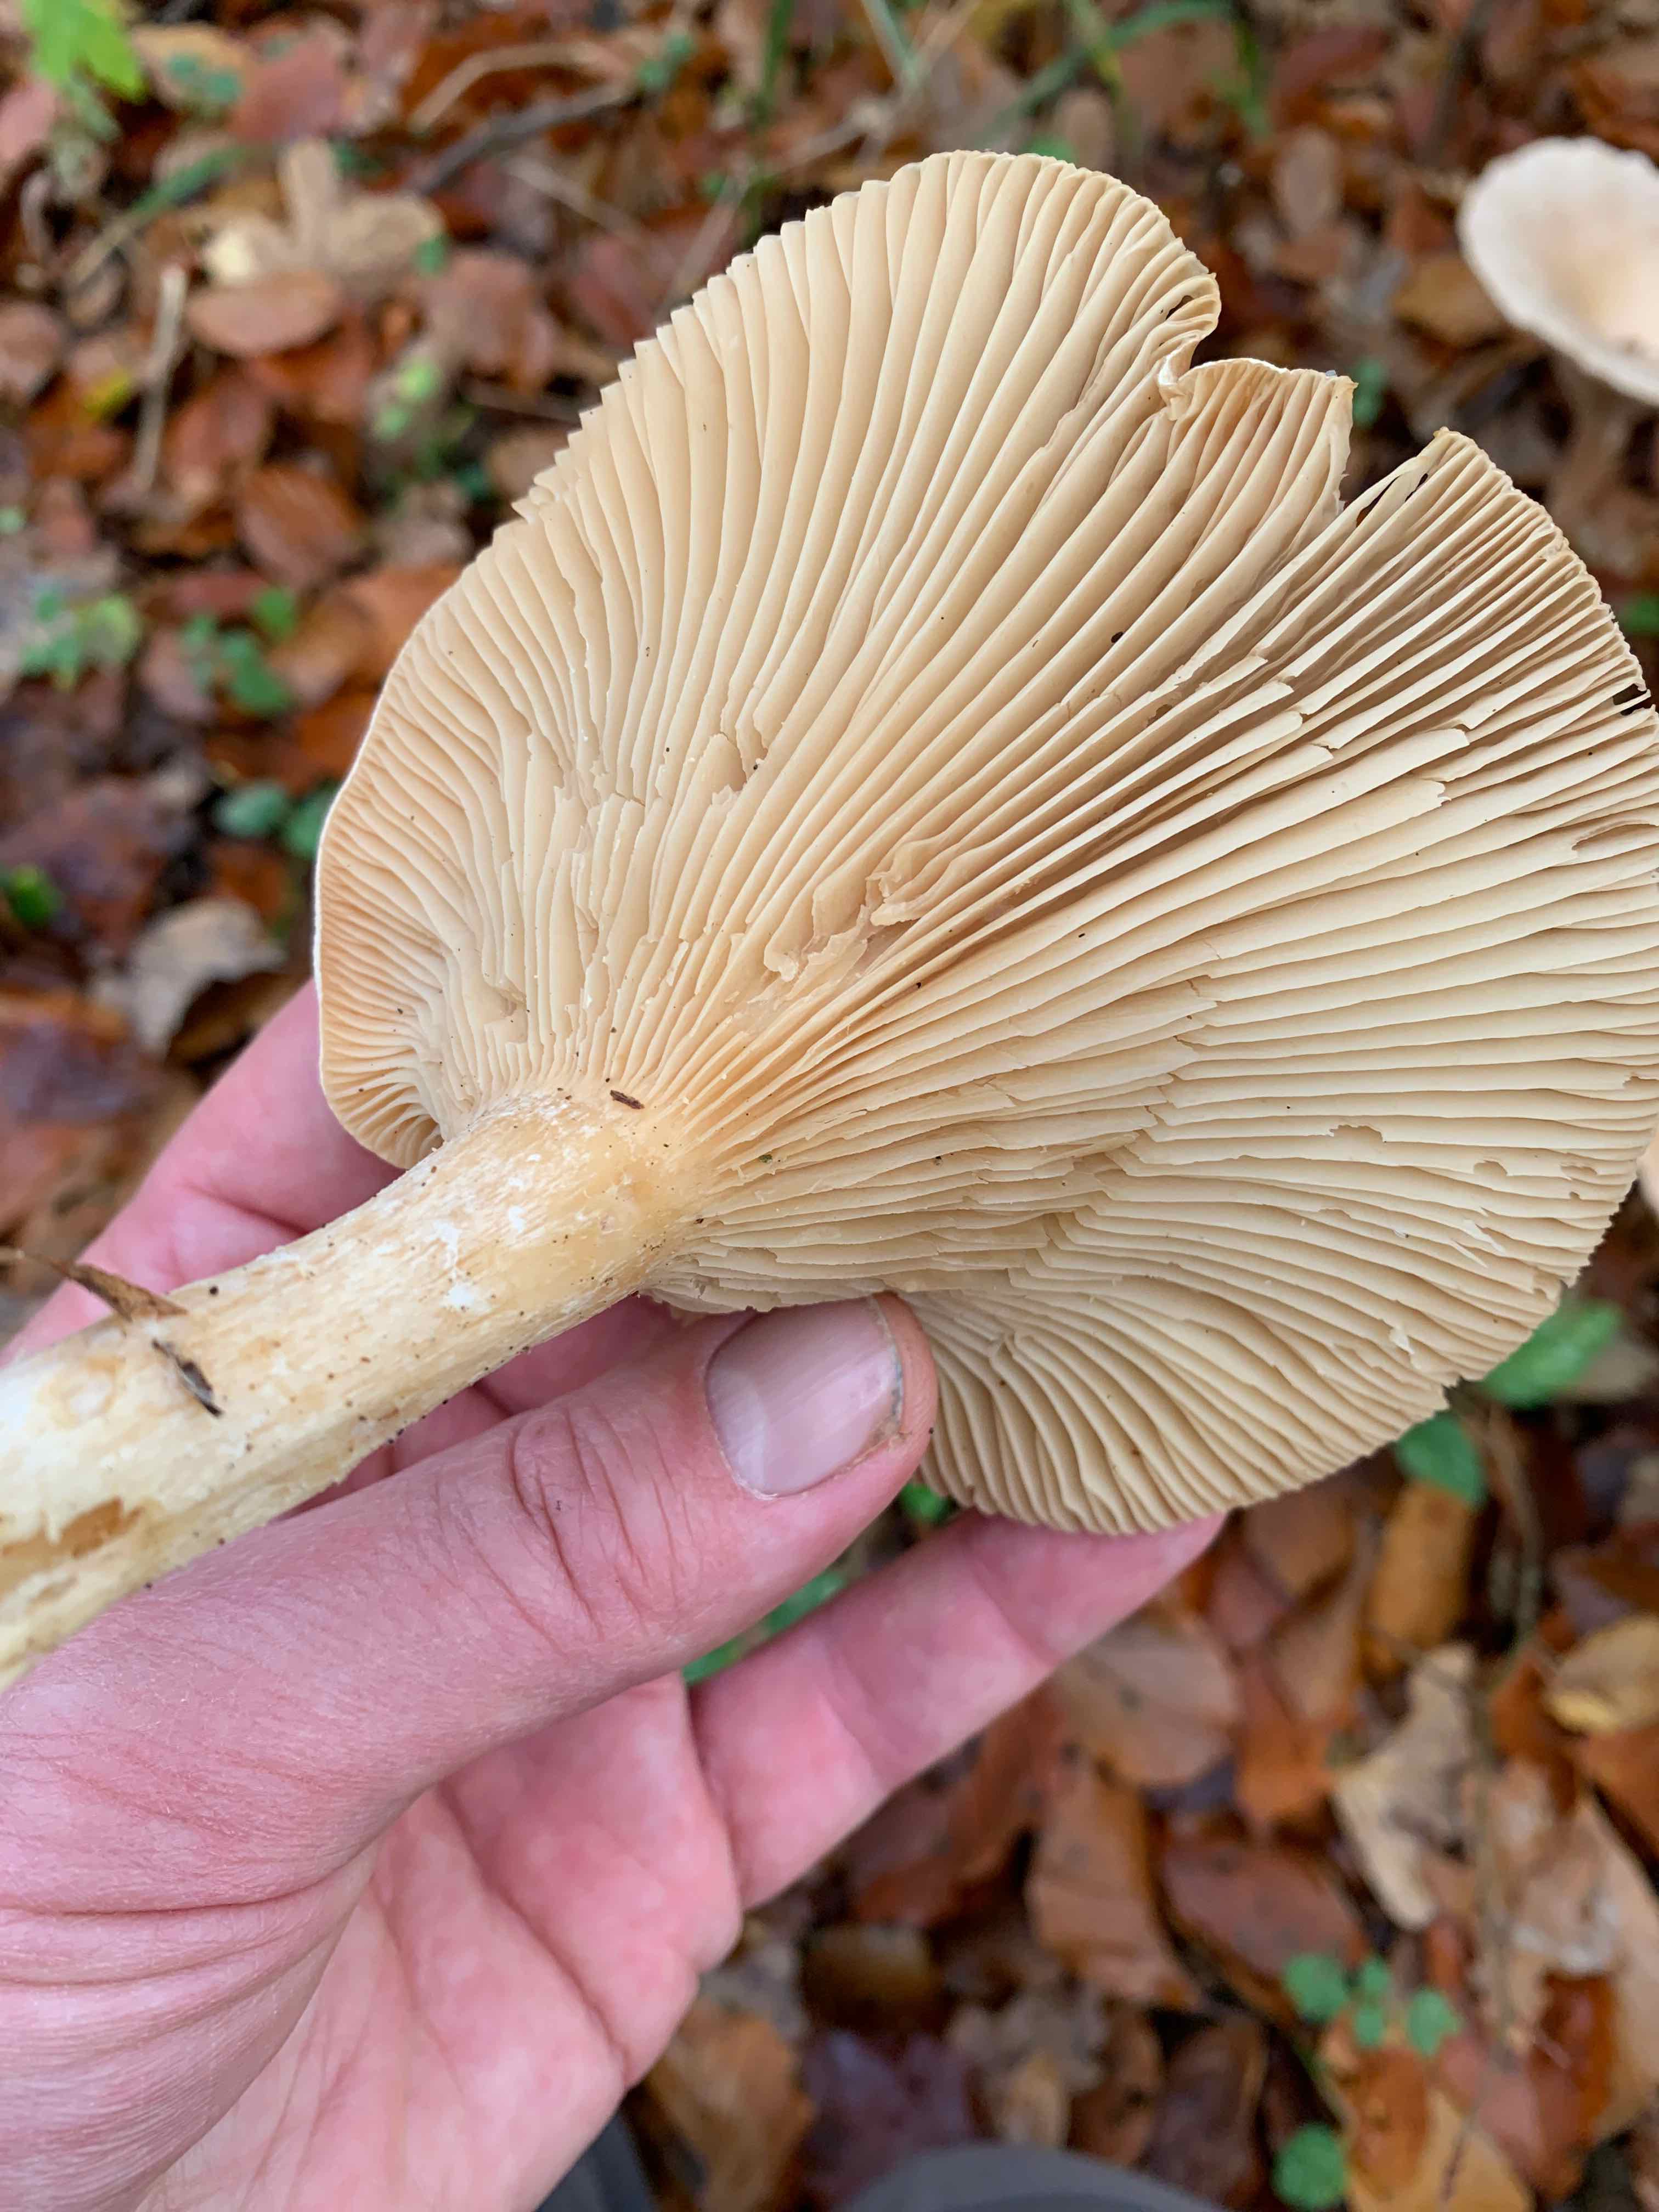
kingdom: Fungi
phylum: Basidiomycota
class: Agaricomycetes
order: Agaricales
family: Tricholomataceae
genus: Infundibulicybe
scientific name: Infundibulicybe geotropa
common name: stor tragthat
